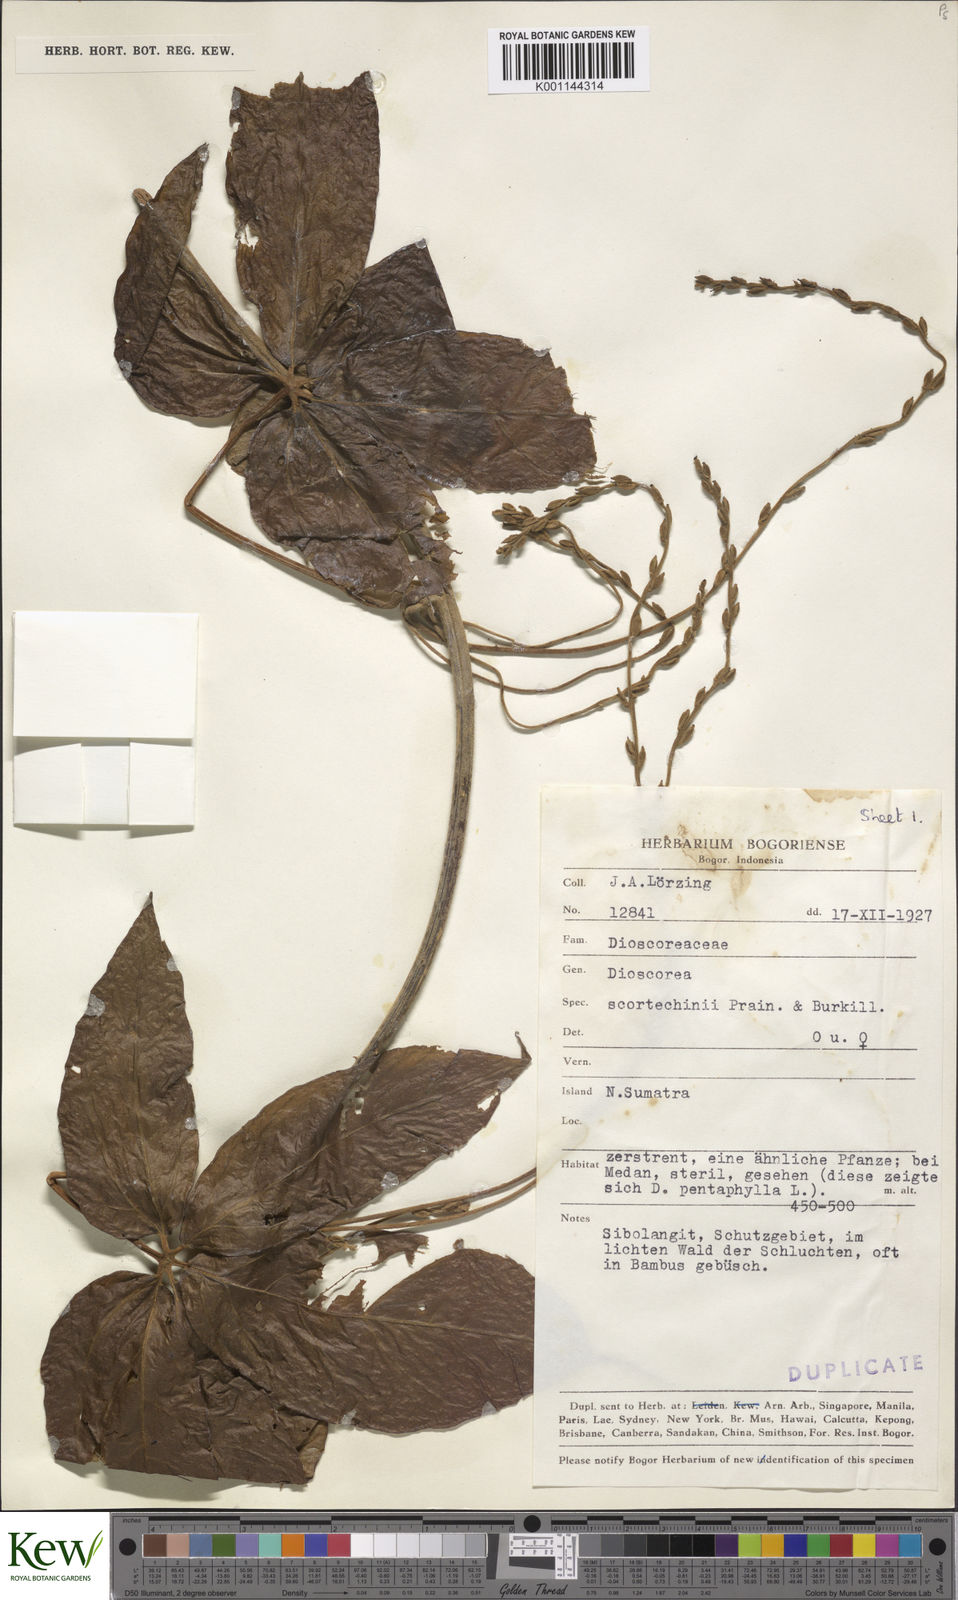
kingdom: Plantae
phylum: Tracheophyta
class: Liliopsida
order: Dioscoreales
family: Dioscoreaceae
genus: Dioscorea
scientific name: Dioscorea scortechinii
